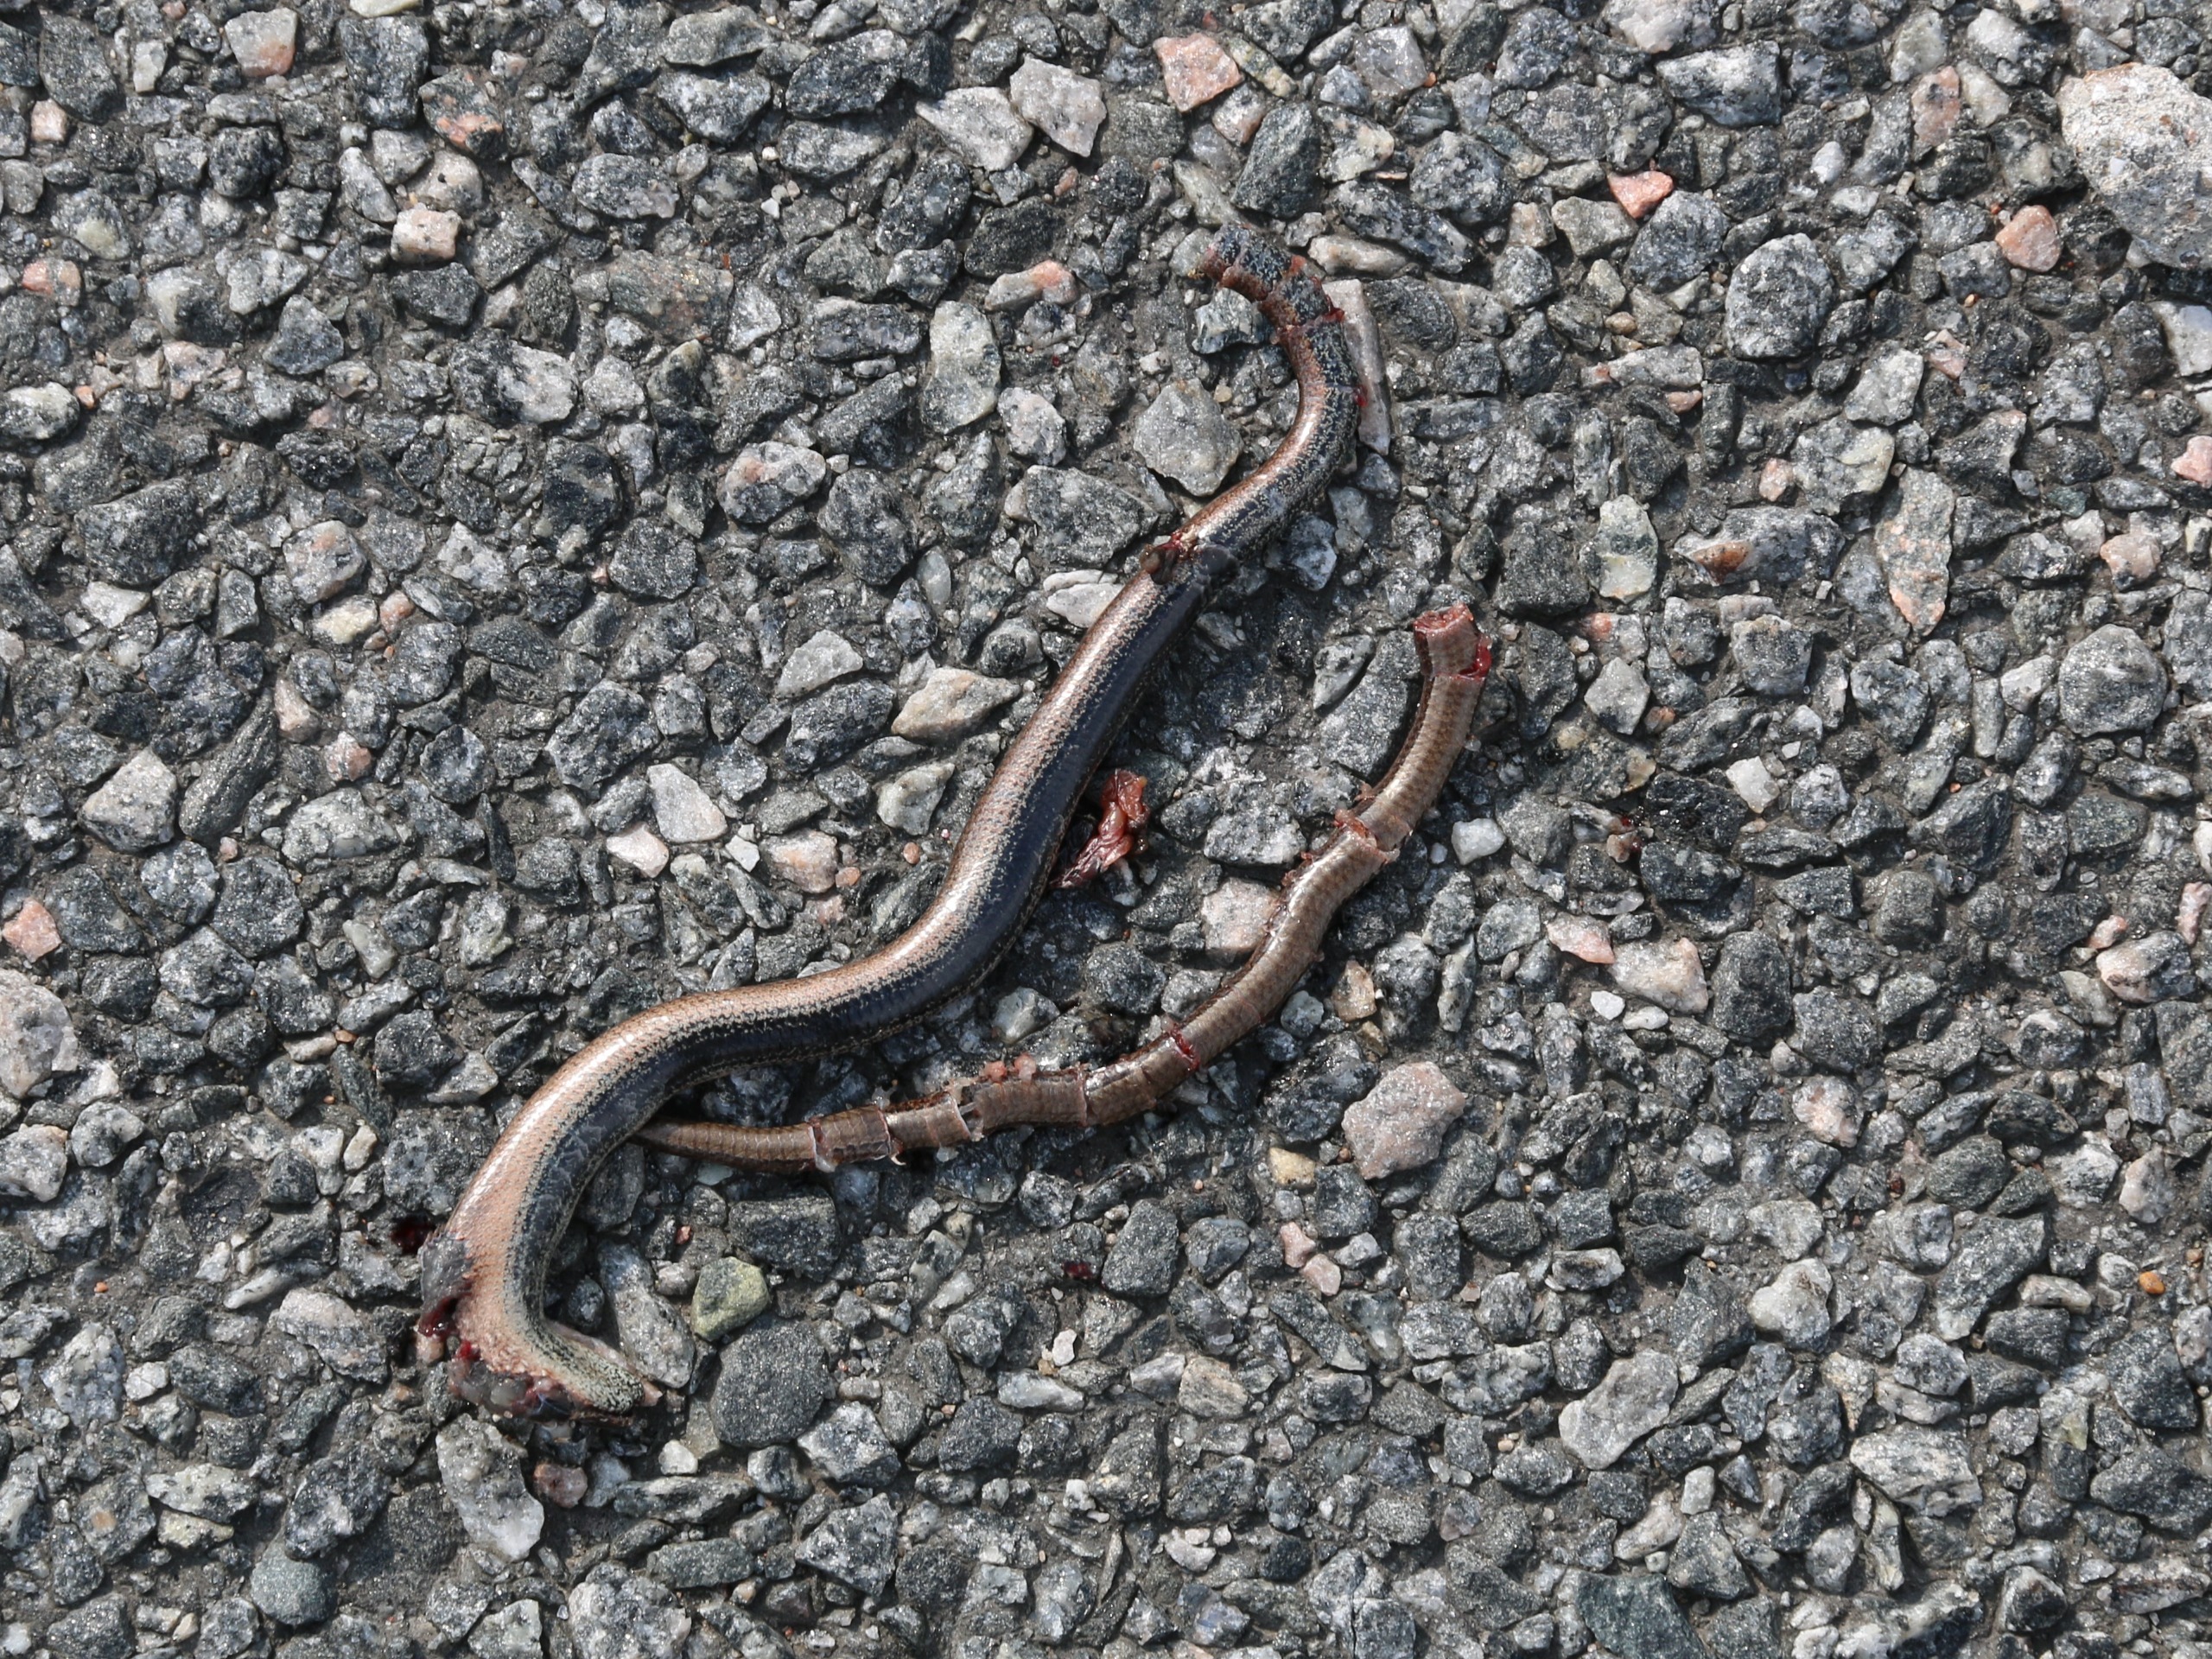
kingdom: Animalia
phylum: Chordata
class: Squamata
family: Anguidae
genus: Anguis
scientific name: Anguis fragilis
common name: Stålorm
